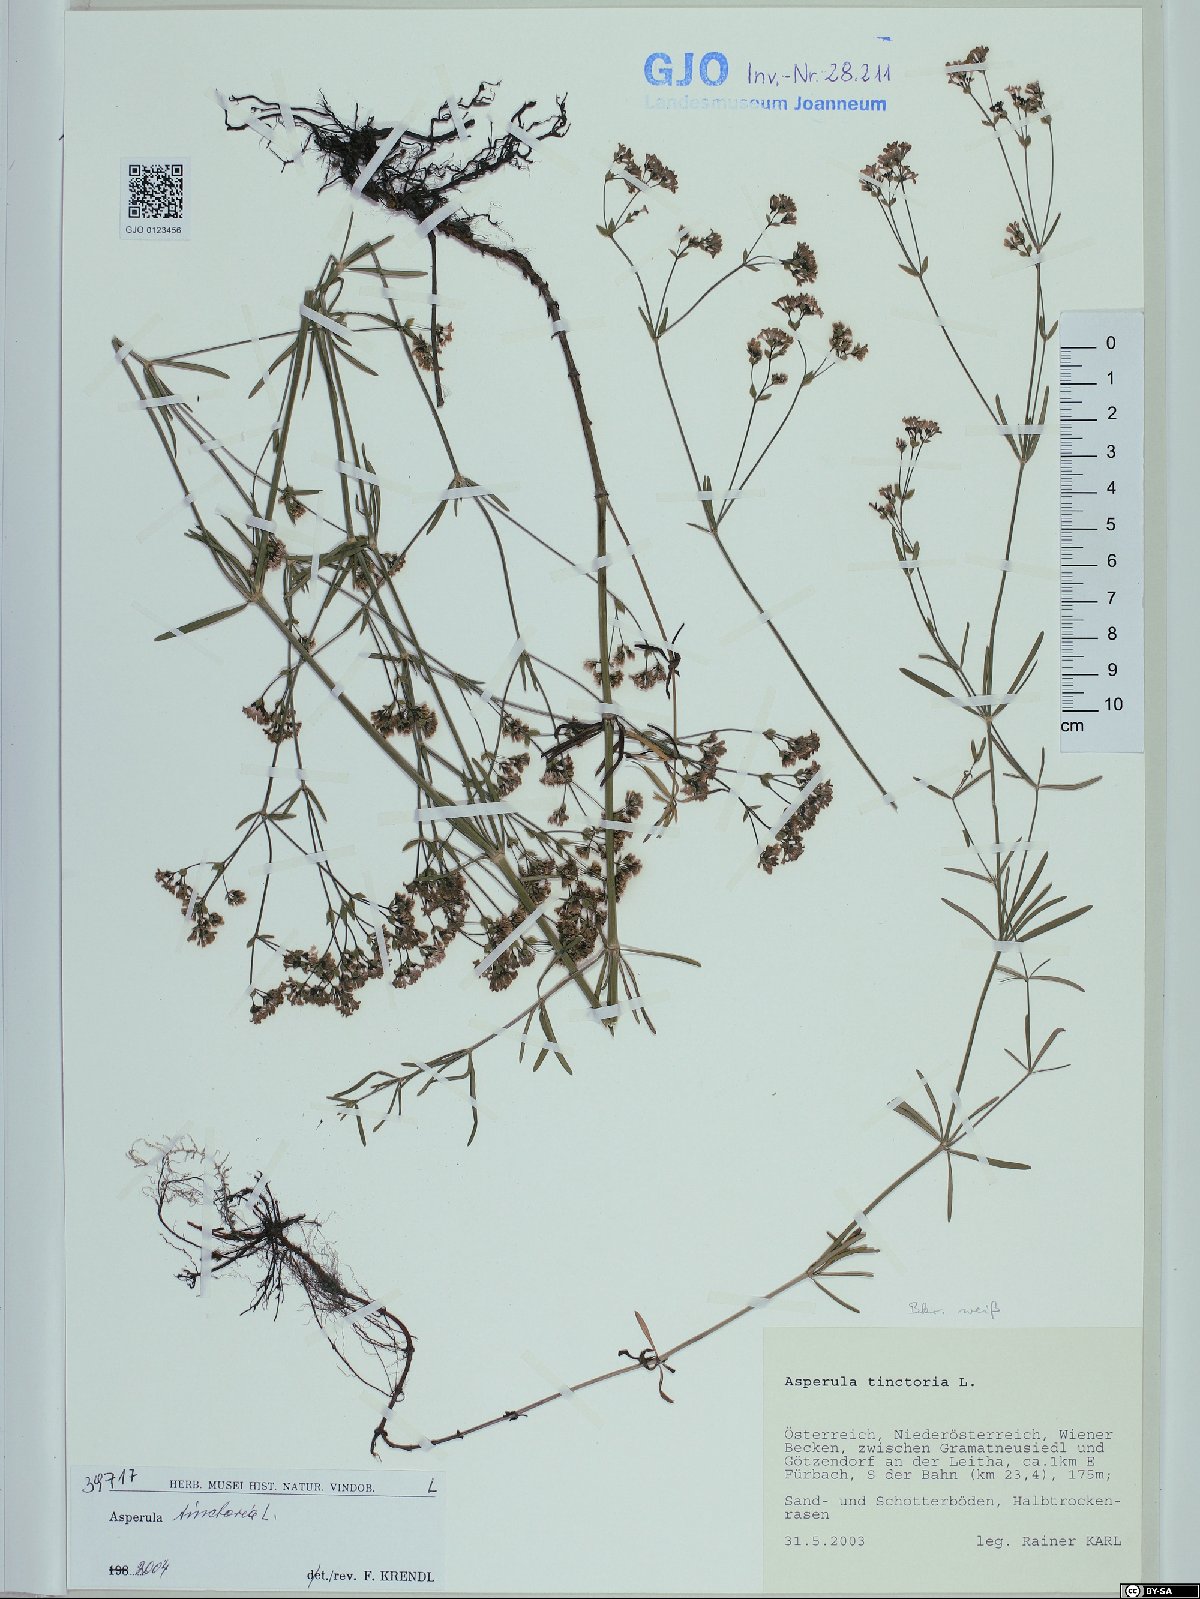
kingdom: Plantae
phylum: Tracheophyta
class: Magnoliopsida
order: Gentianales
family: Rubiaceae
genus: Asperula
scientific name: Asperula tinctoria
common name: Dyer's woodruff
